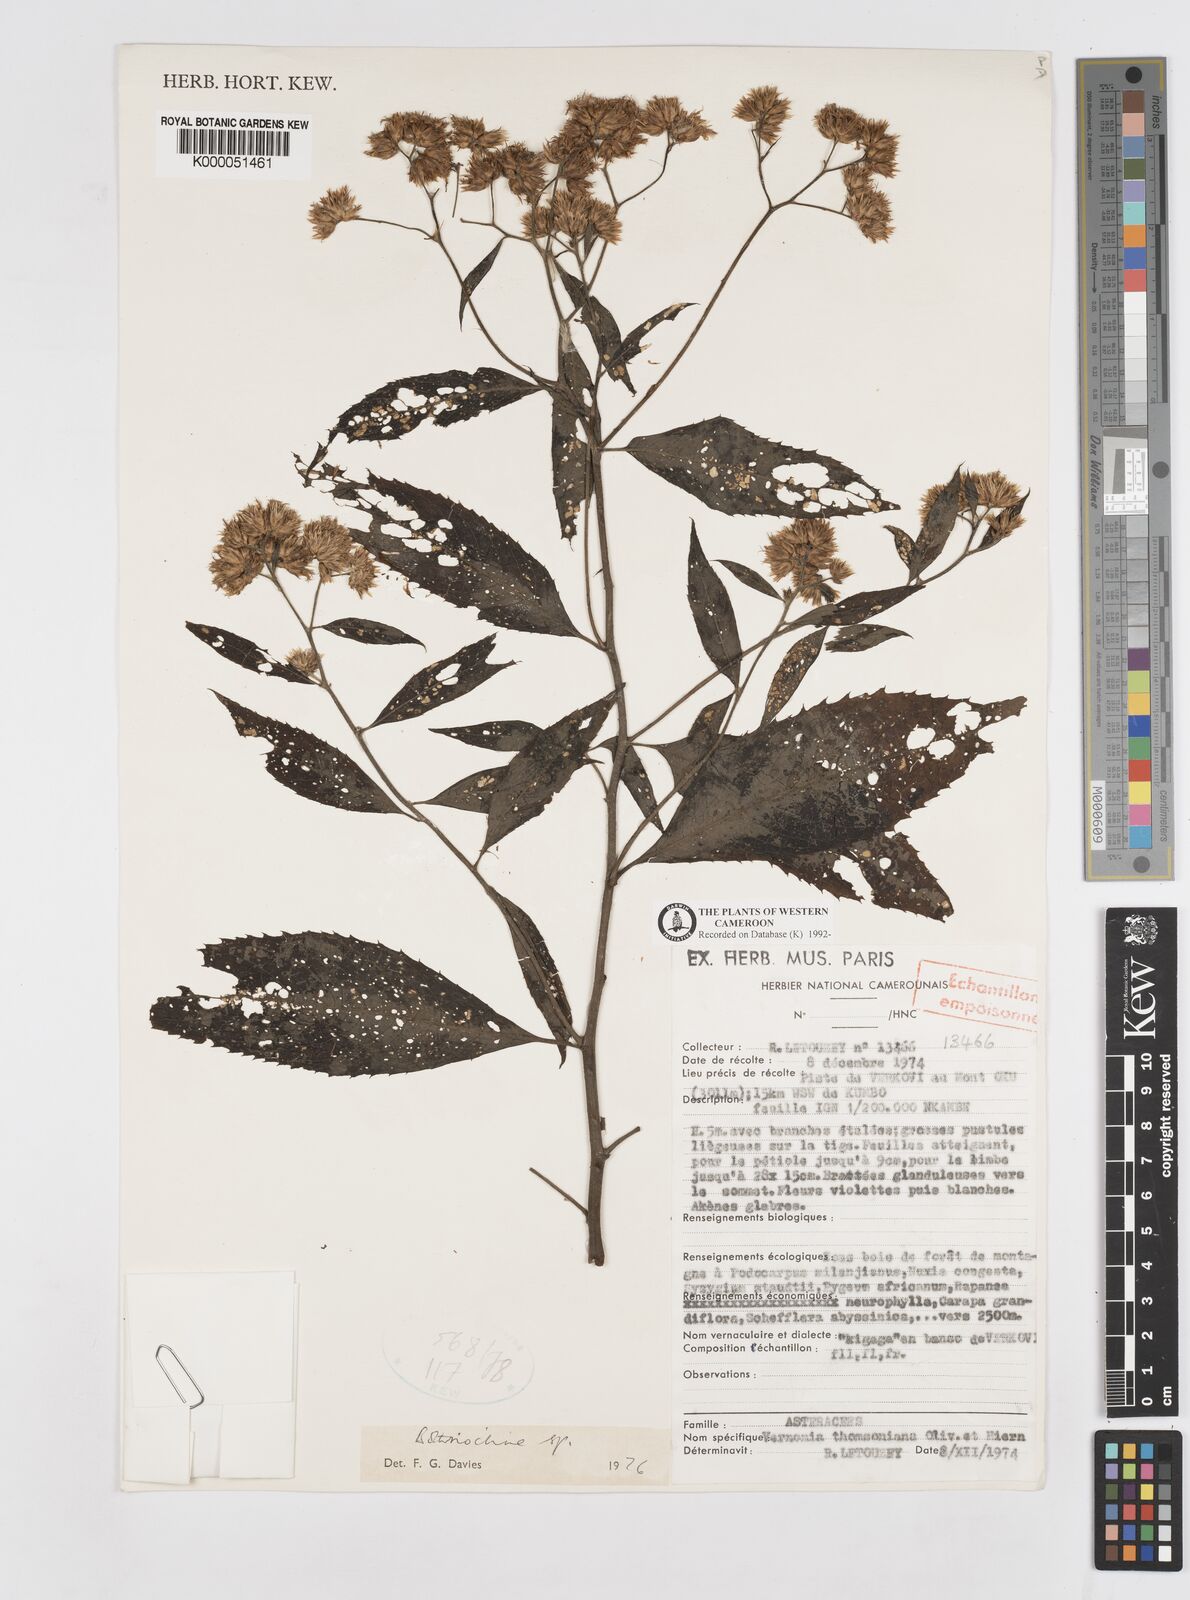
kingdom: Plantae
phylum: Tracheophyta
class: Magnoliopsida
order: Asterales
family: Asteraceae
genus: Bothriocline
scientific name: Bothriocline amplifolia
